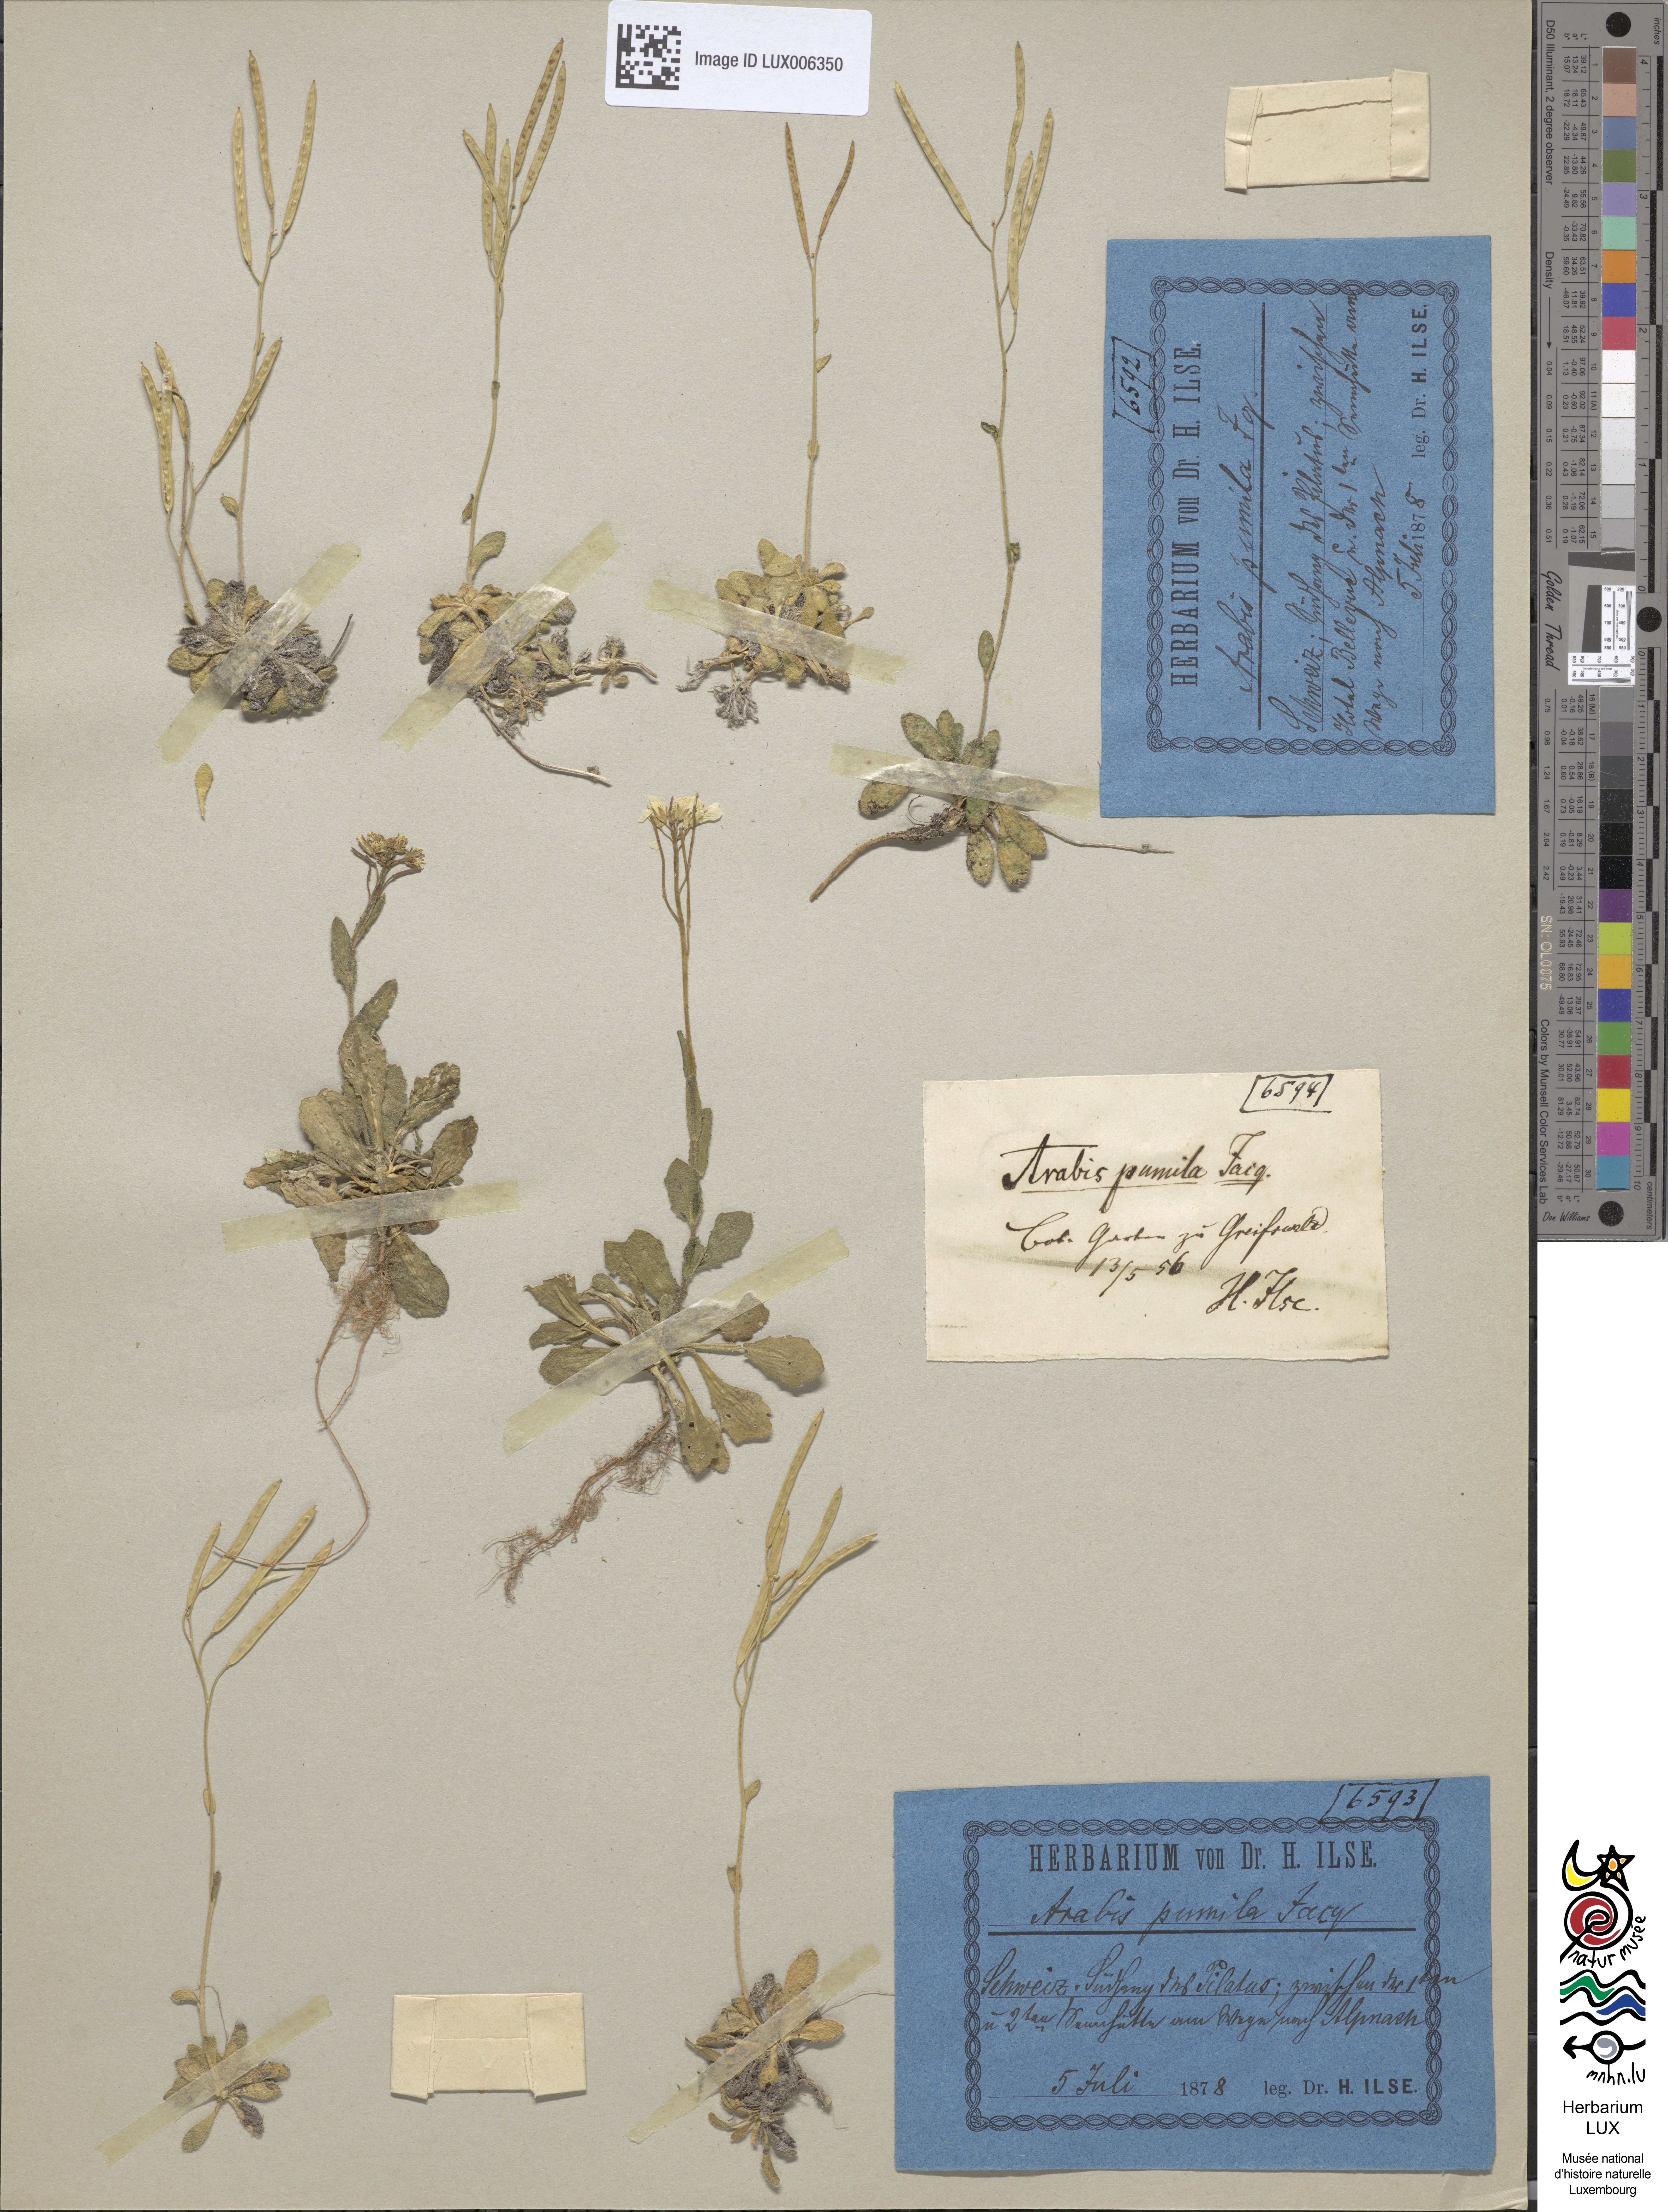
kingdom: Plantae
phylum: Tracheophyta
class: Magnoliopsida
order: Brassicales
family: Brassicaceae
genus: Arabis
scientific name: Arabis pumila
